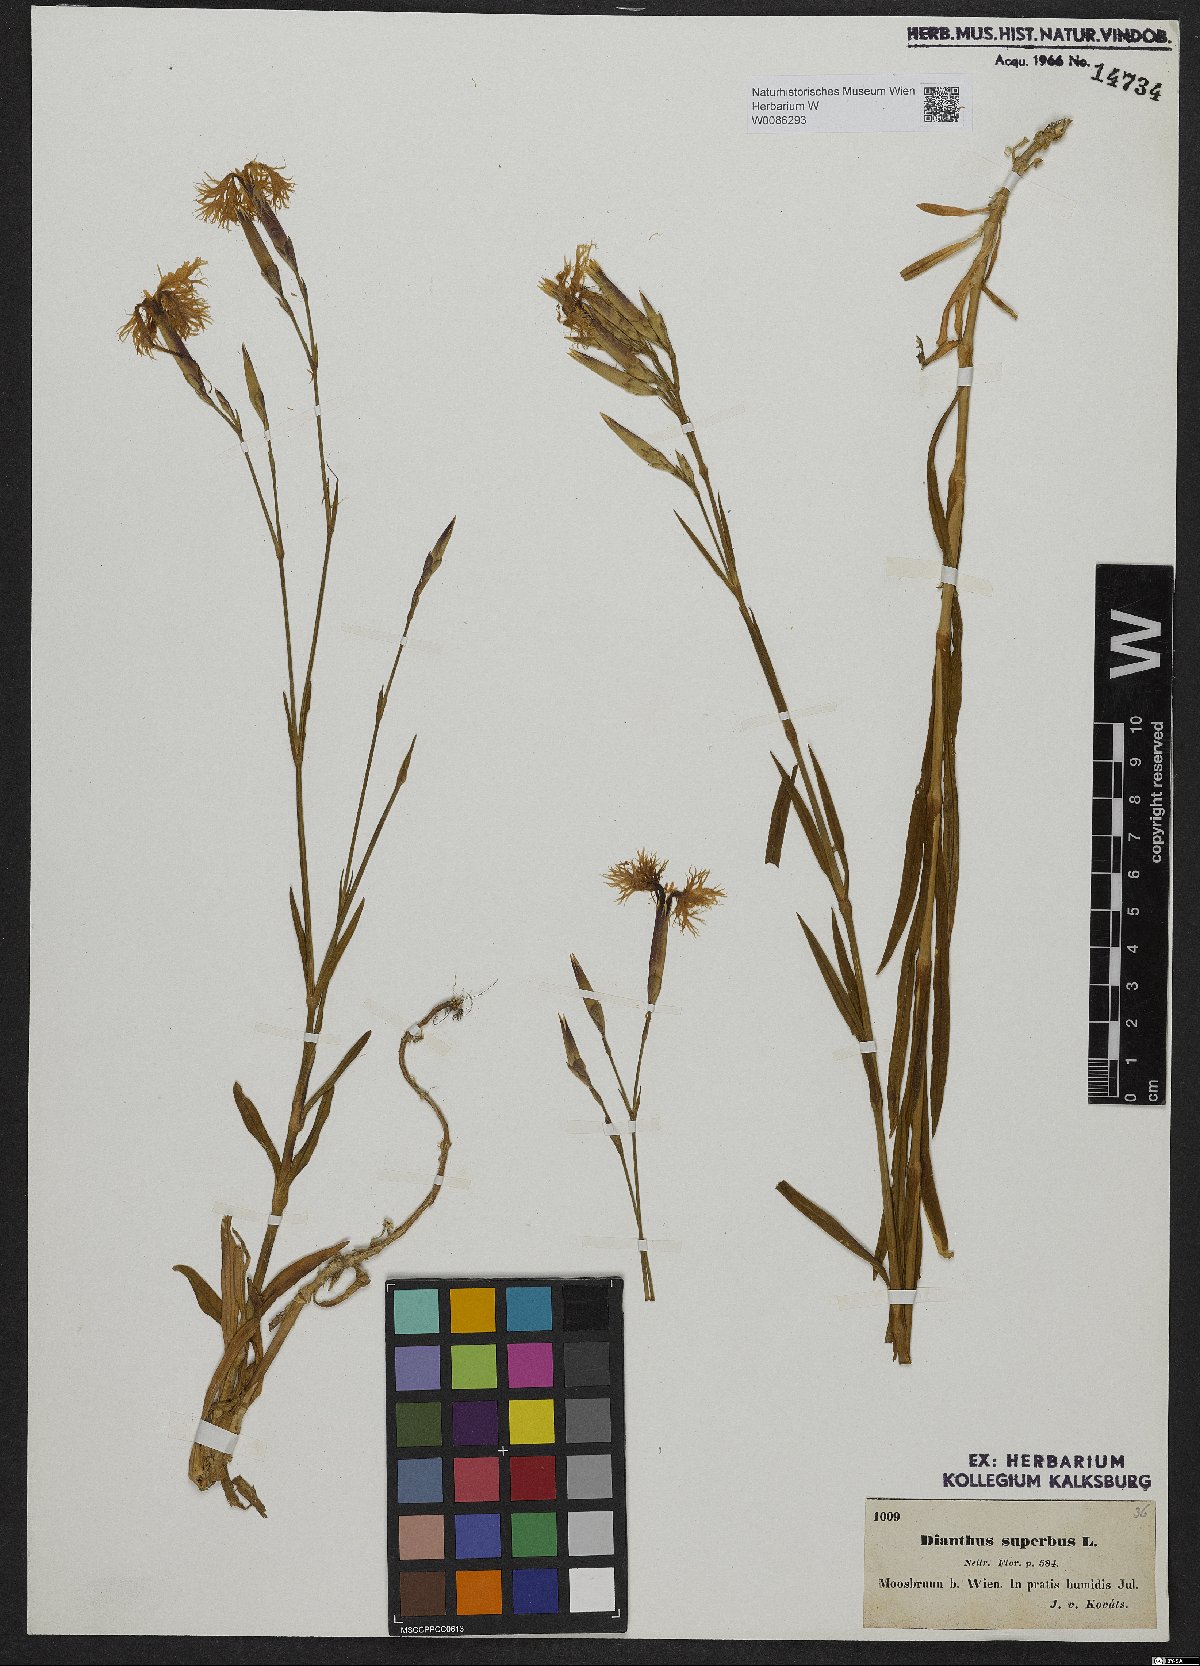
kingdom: Plantae
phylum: Tracheophyta
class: Magnoliopsida
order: Caryophyllales
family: Caryophyllaceae
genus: Dianthus
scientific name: Dianthus superbus
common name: Fringed pink
